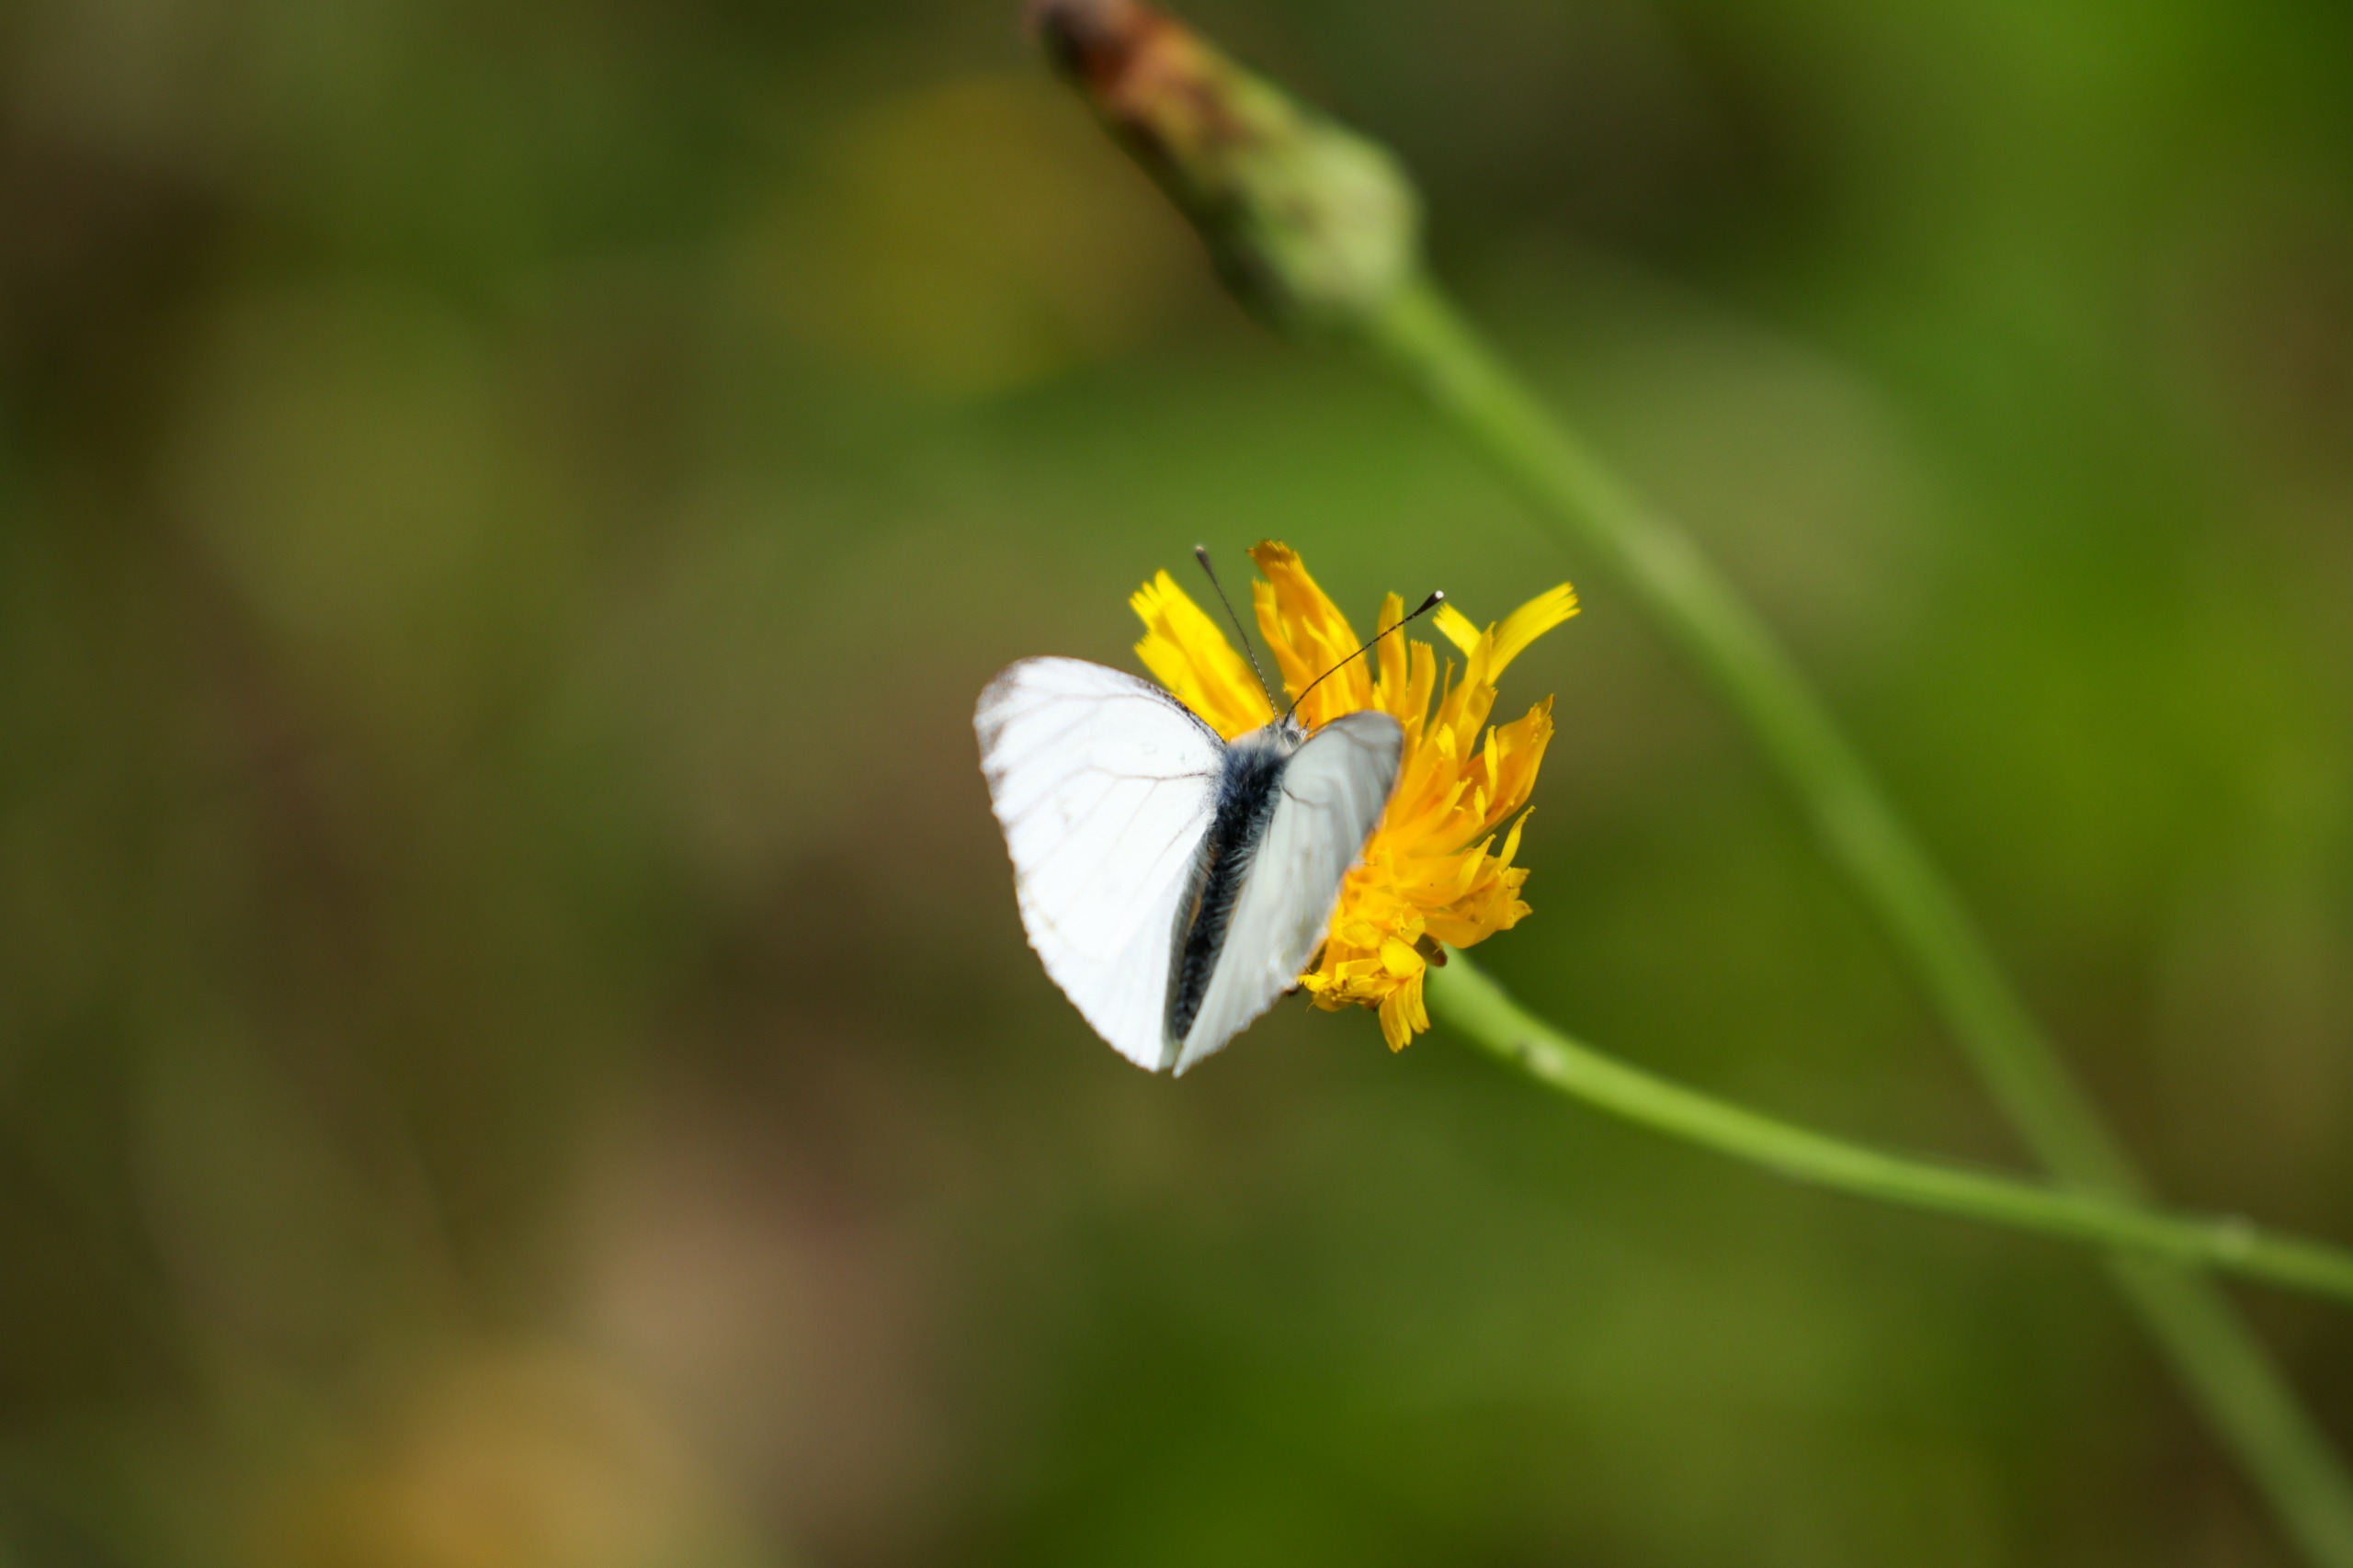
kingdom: Animalia
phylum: Arthropoda
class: Insecta
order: Lepidoptera
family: Pieridae
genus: Pieris
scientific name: Pieris napi
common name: Grønåret kålsommerfugl
